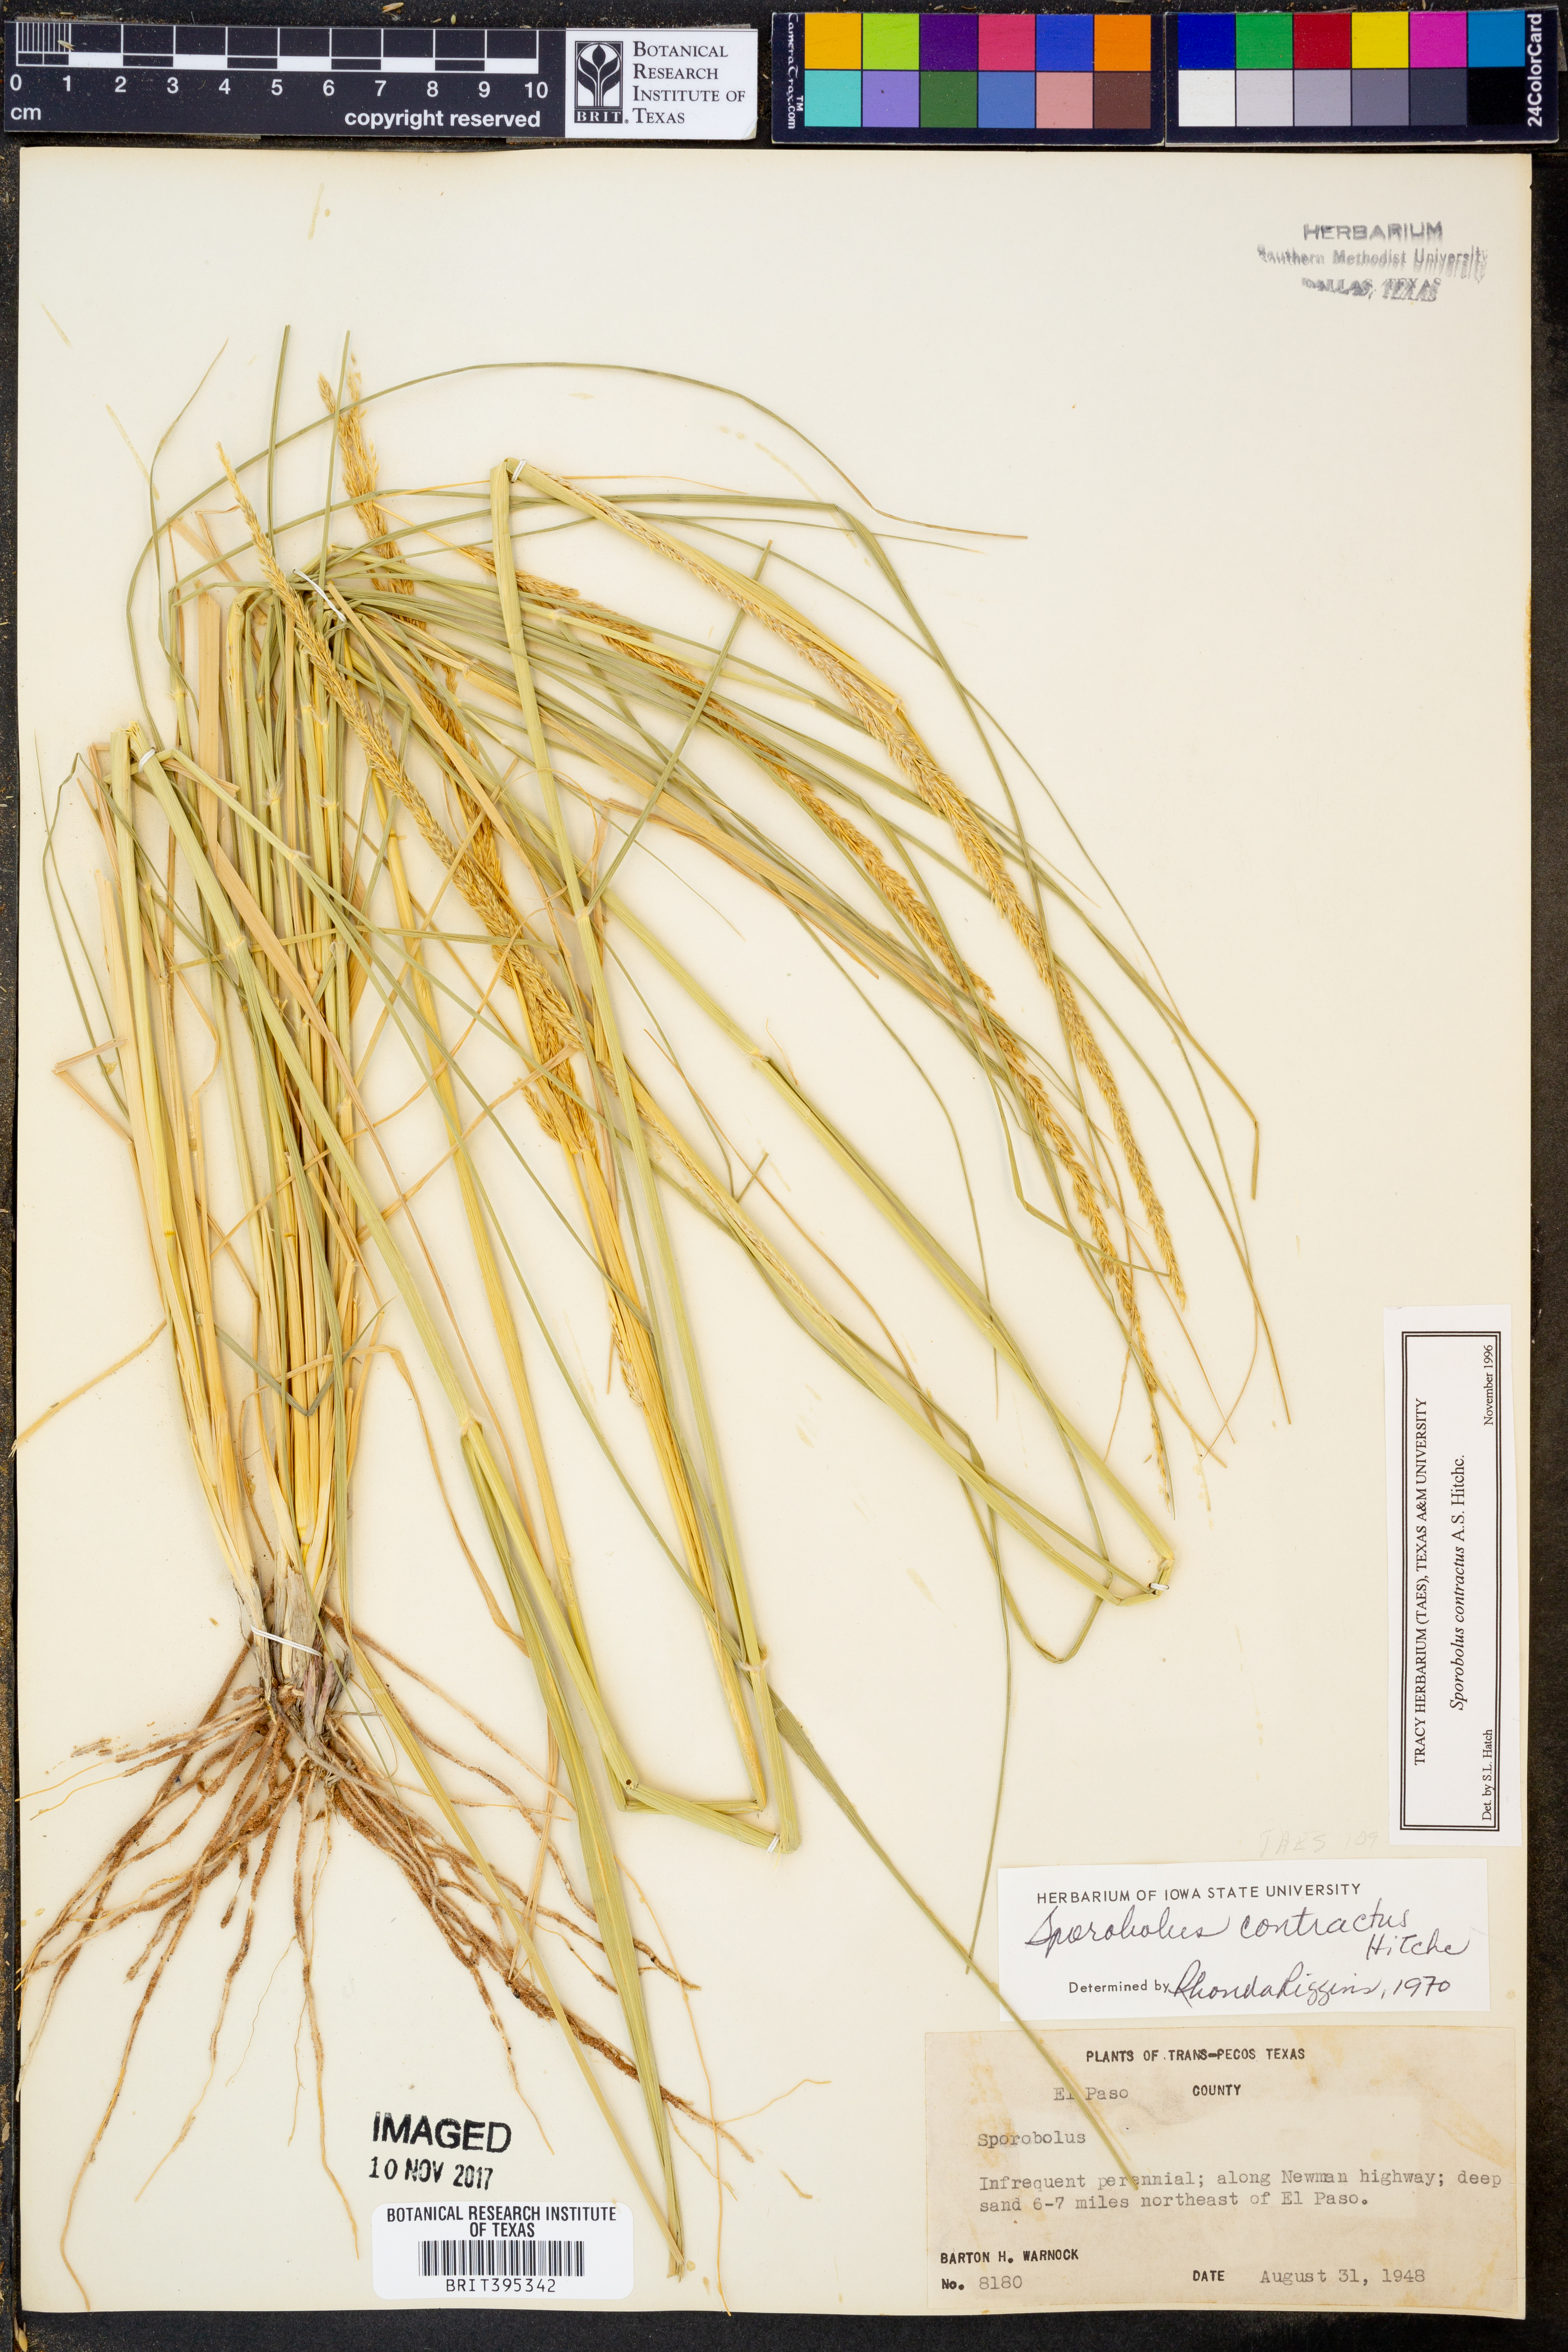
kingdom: Plantae
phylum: Tracheophyta
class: Liliopsida
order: Poales
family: Poaceae
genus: Sporobolus
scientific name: Sporobolus contractus
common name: Spike dropseed
